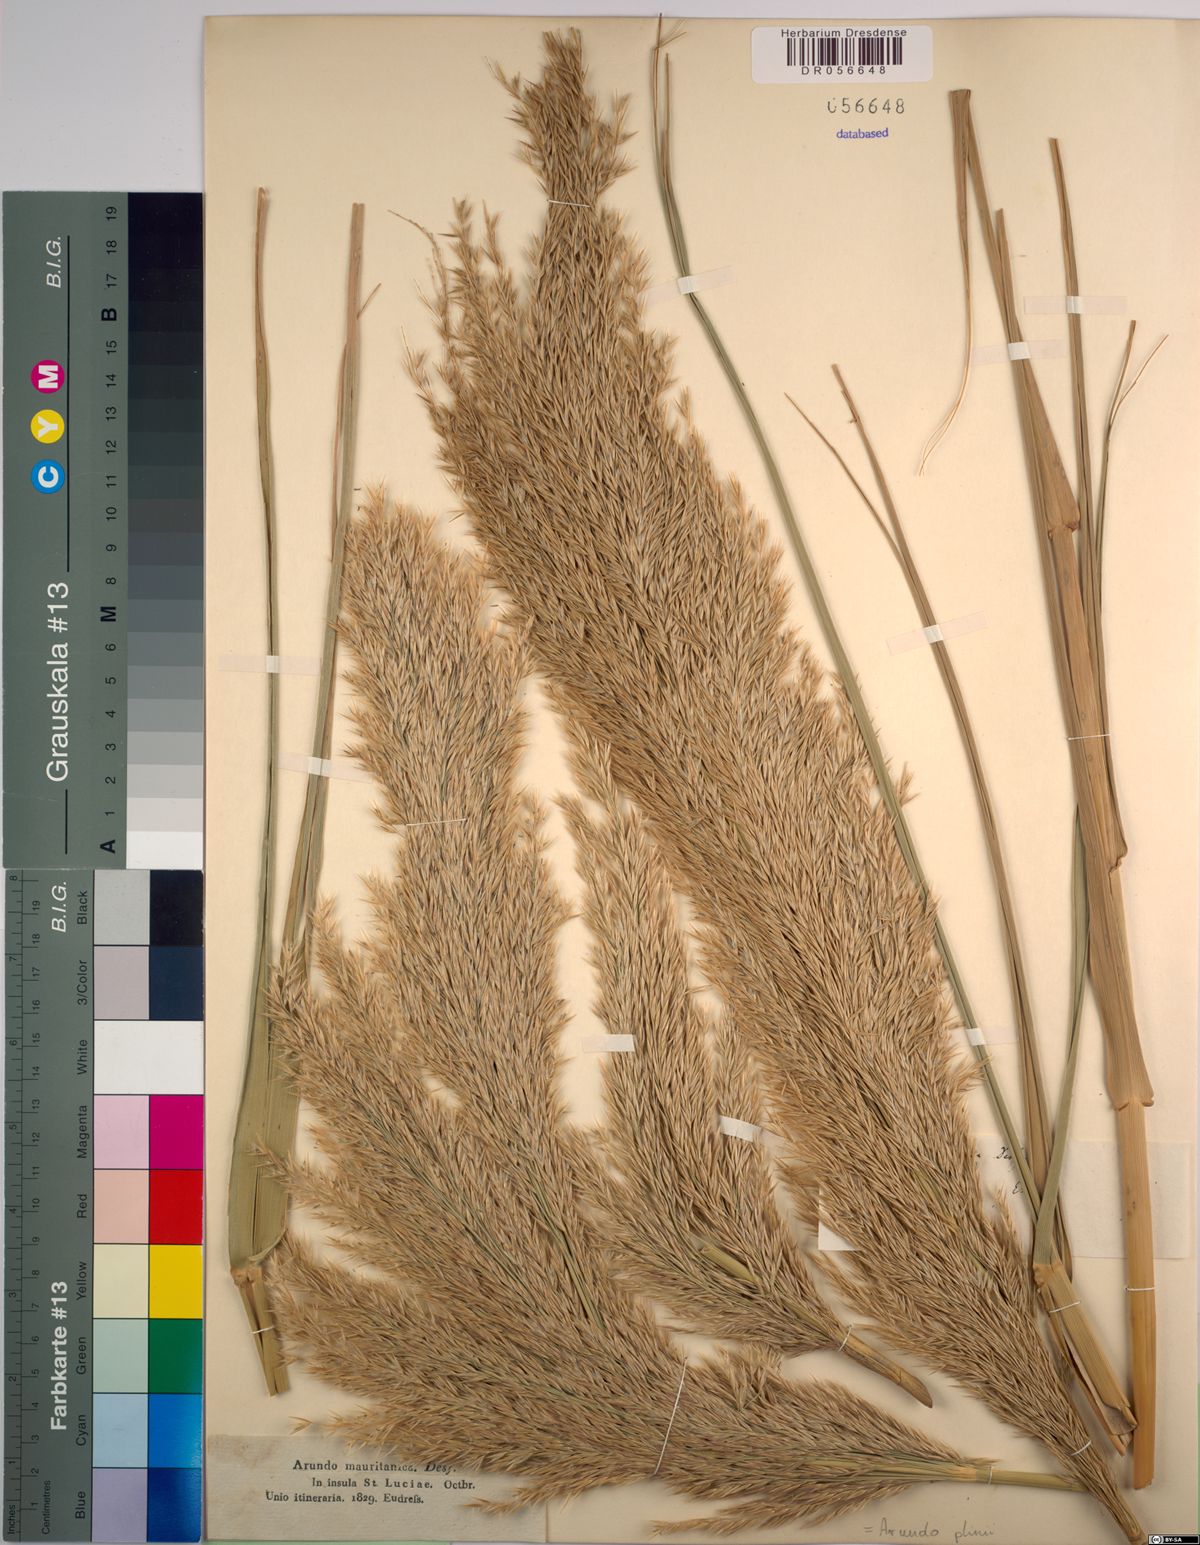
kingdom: Plantae
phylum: Tracheophyta
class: Liliopsida
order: Poales
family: Poaceae
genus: Arundo
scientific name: Arundo plinii
